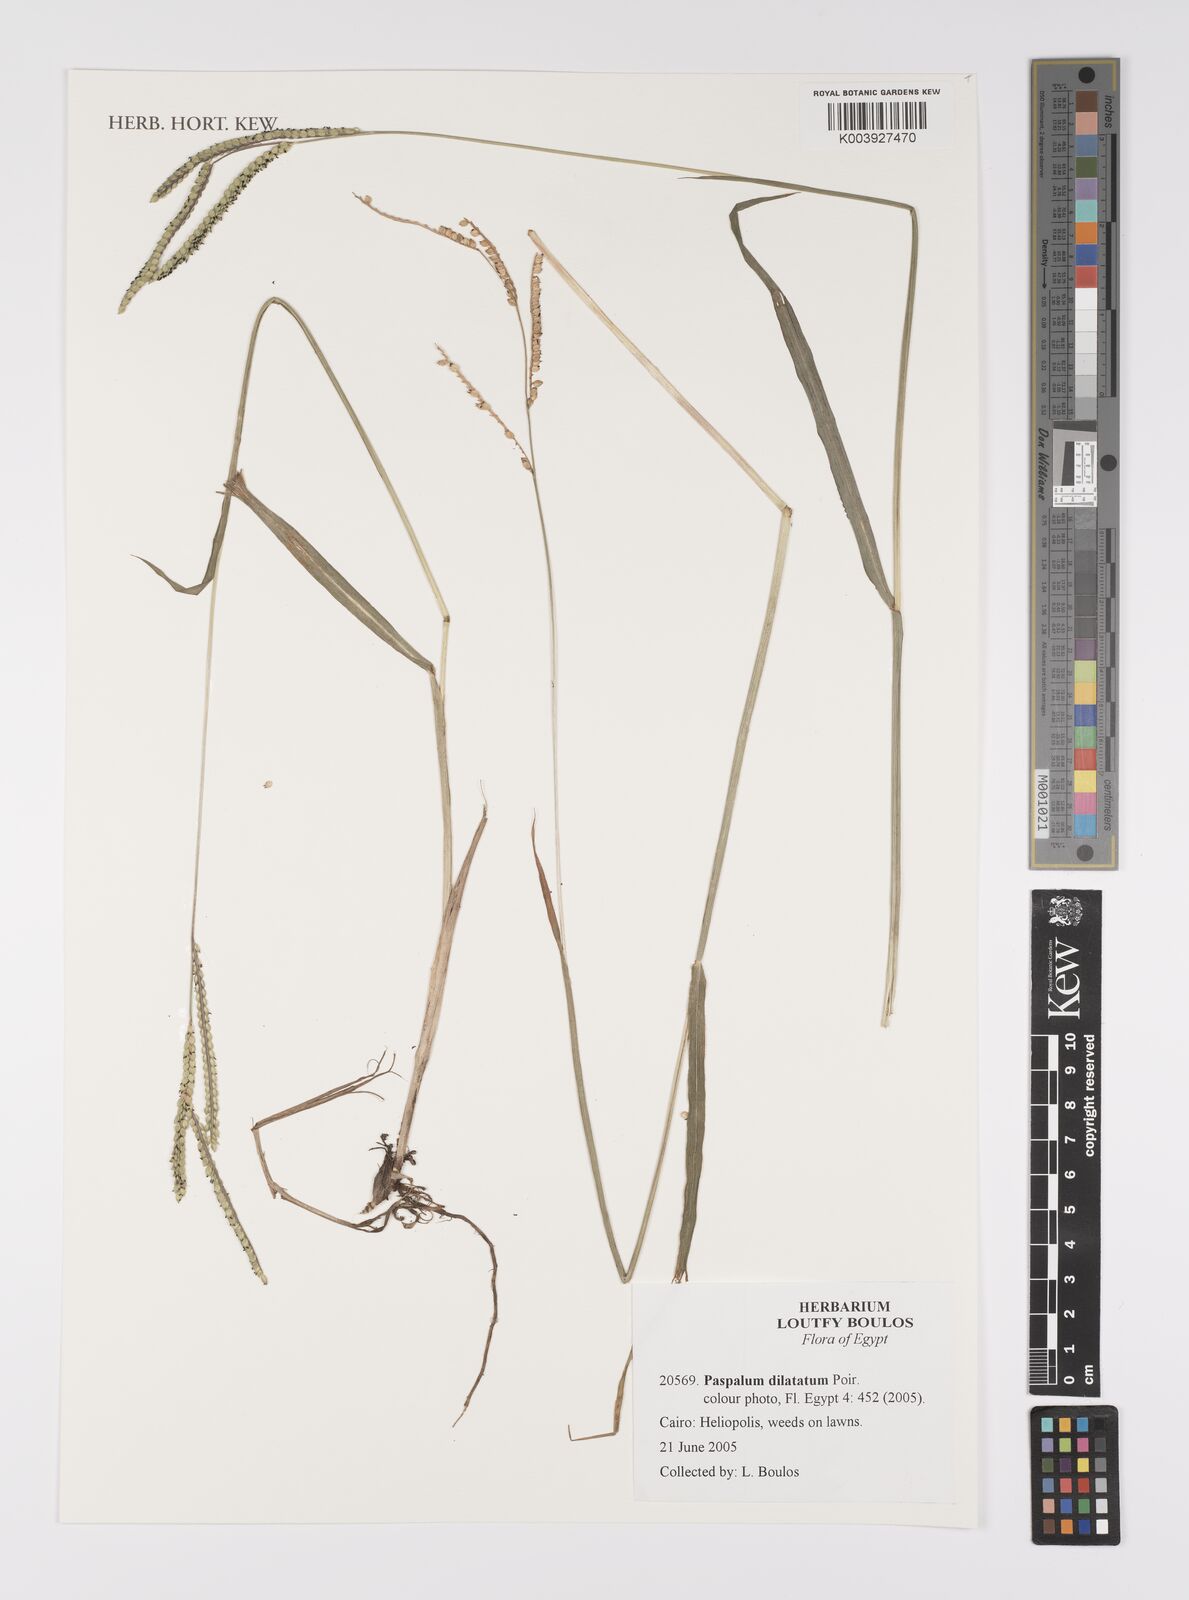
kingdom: Plantae
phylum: Tracheophyta
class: Liliopsida
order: Poales
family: Poaceae
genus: Paspalum
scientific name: Paspalum dilatatum
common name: Dallisgrass
